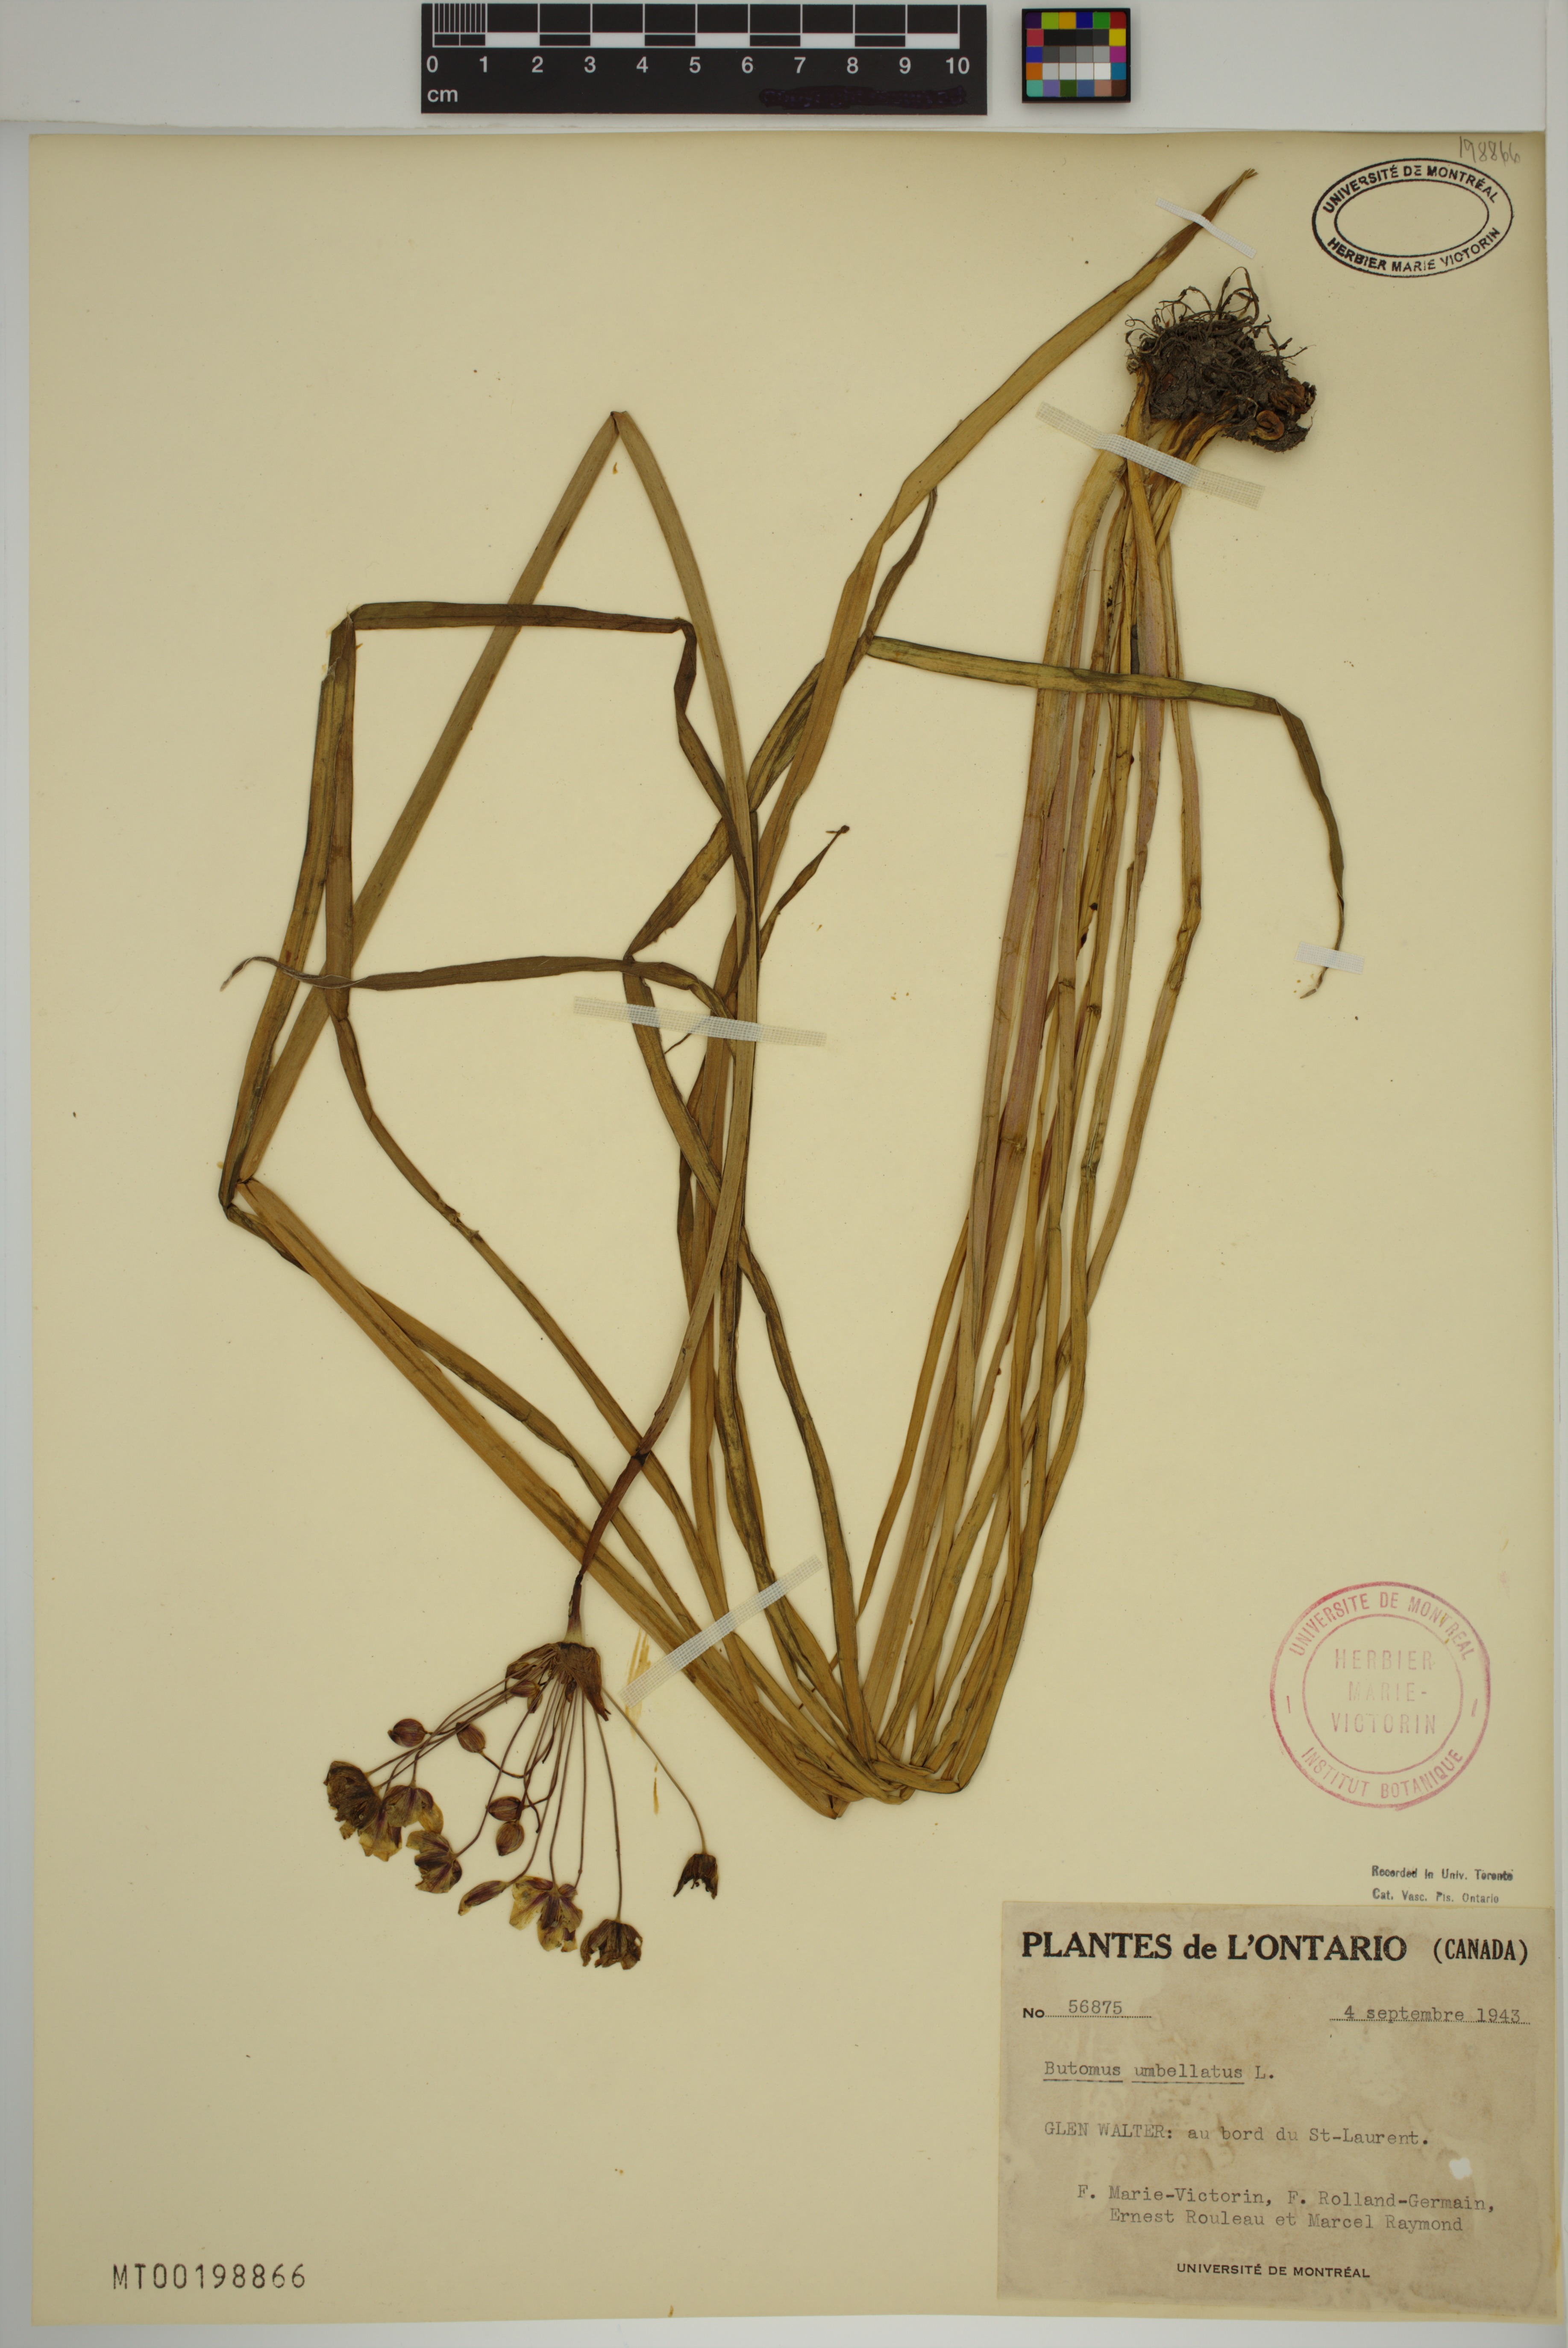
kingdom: Plantae
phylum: Tracheophyta
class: Liliopsida
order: Alismatales
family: Butomaceae
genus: Butomus
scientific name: Butomus umbellatus
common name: Flowering-rush
